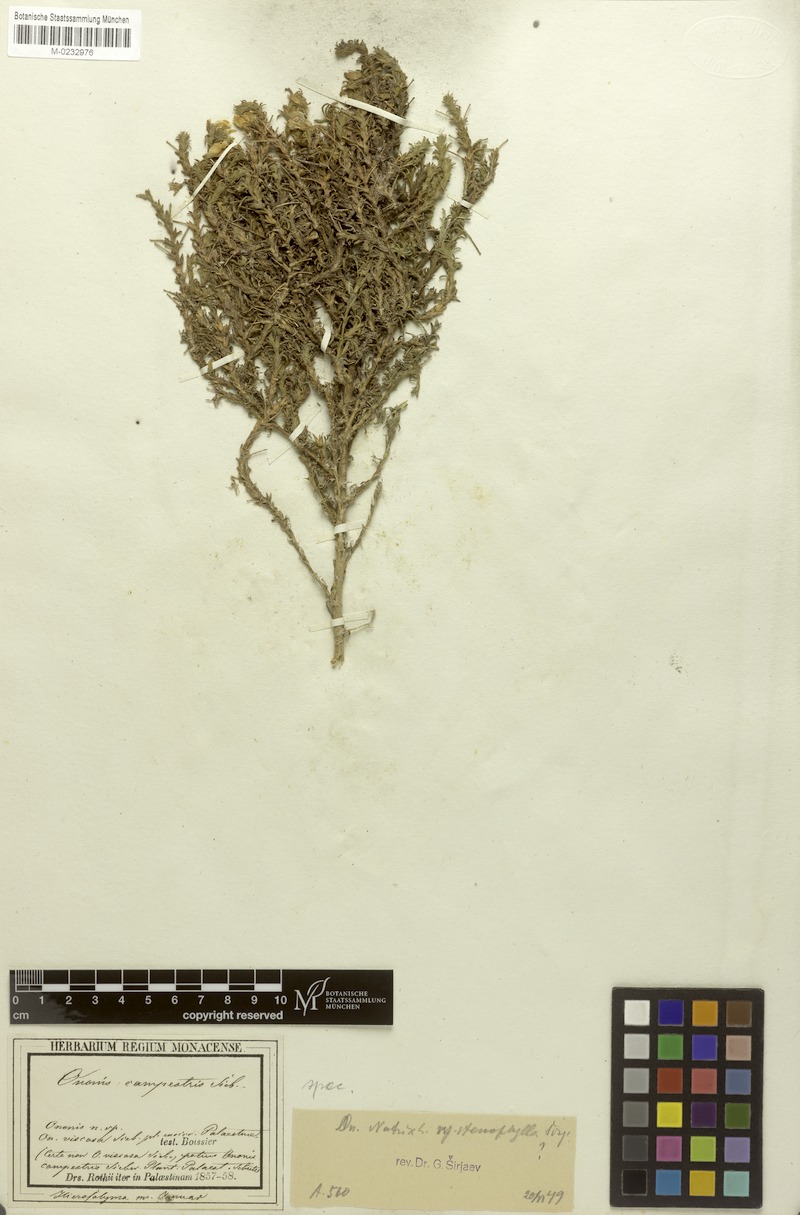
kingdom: Plantae
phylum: Tracheophyta
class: Magnoliopsida
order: Fabales
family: Fabaceae
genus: Ononis
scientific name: Ononis natrix
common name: Yellow restharrow
